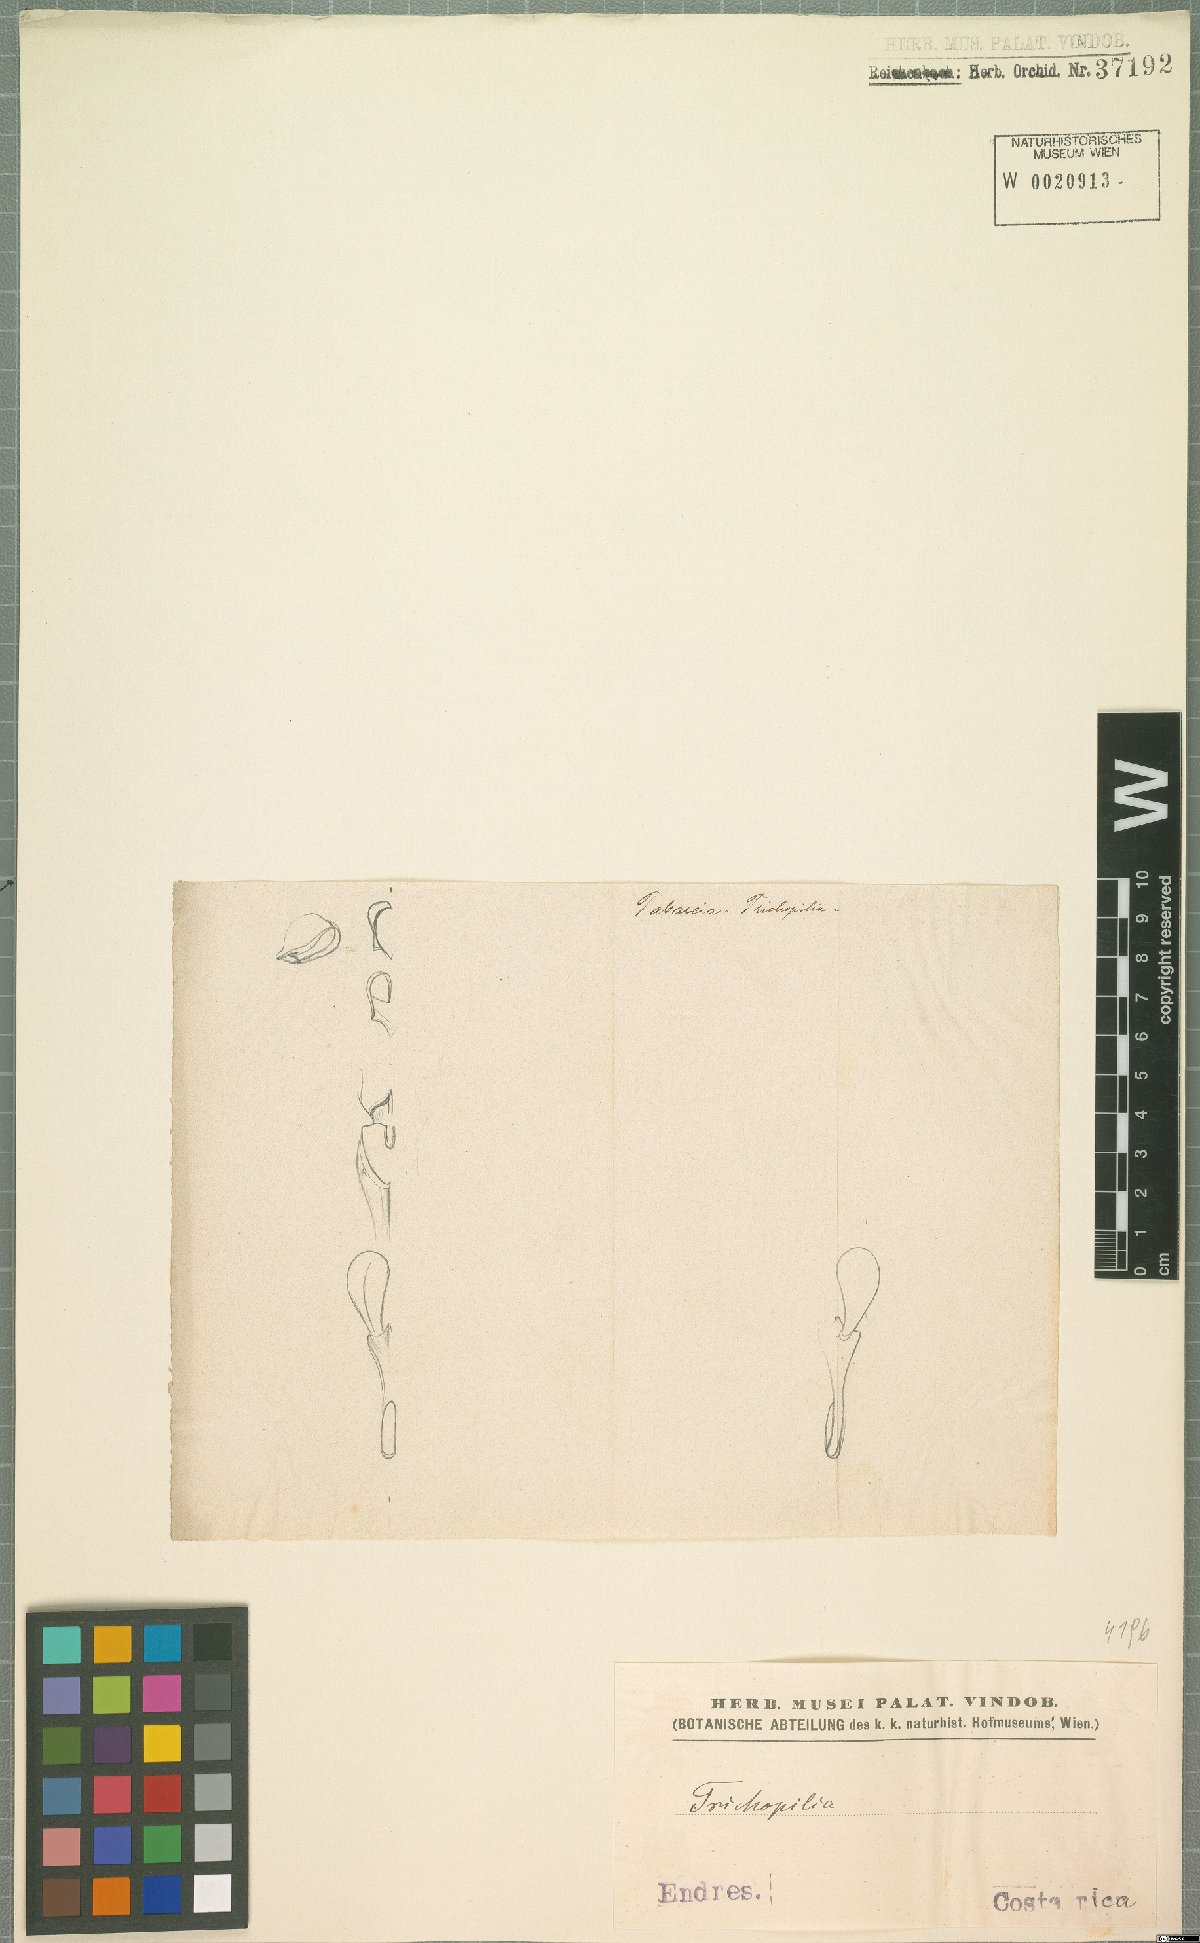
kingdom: Plantae
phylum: Tracheophyta
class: Liliopsida
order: Asparagales
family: Orchidaceae
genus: Trichopilia
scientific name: Trichopilia
